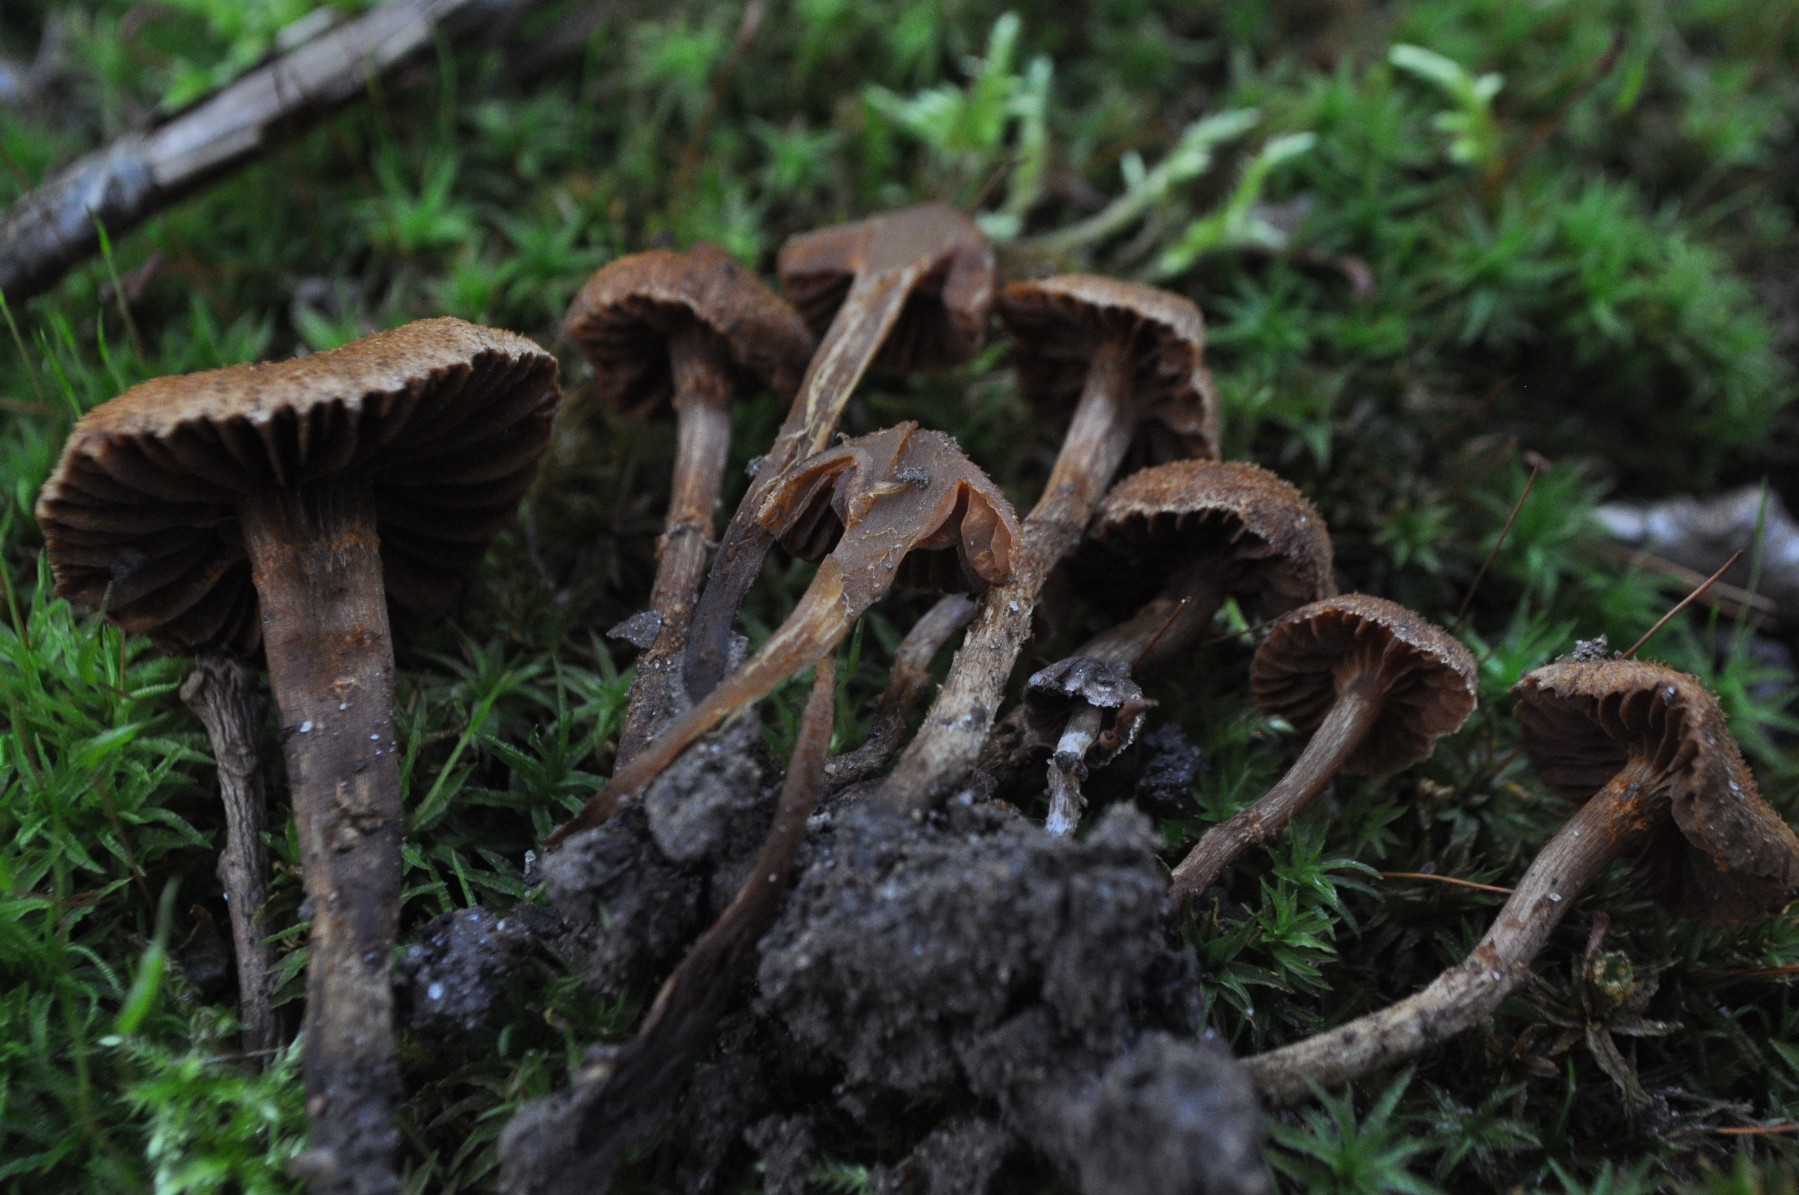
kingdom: Fungi
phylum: Basidiomycota
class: Agaricomycetes
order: Agaricales
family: Cortinariaceae
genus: Cortinarius
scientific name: Cortinarius quercoconicus
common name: agernskål-slørhat
